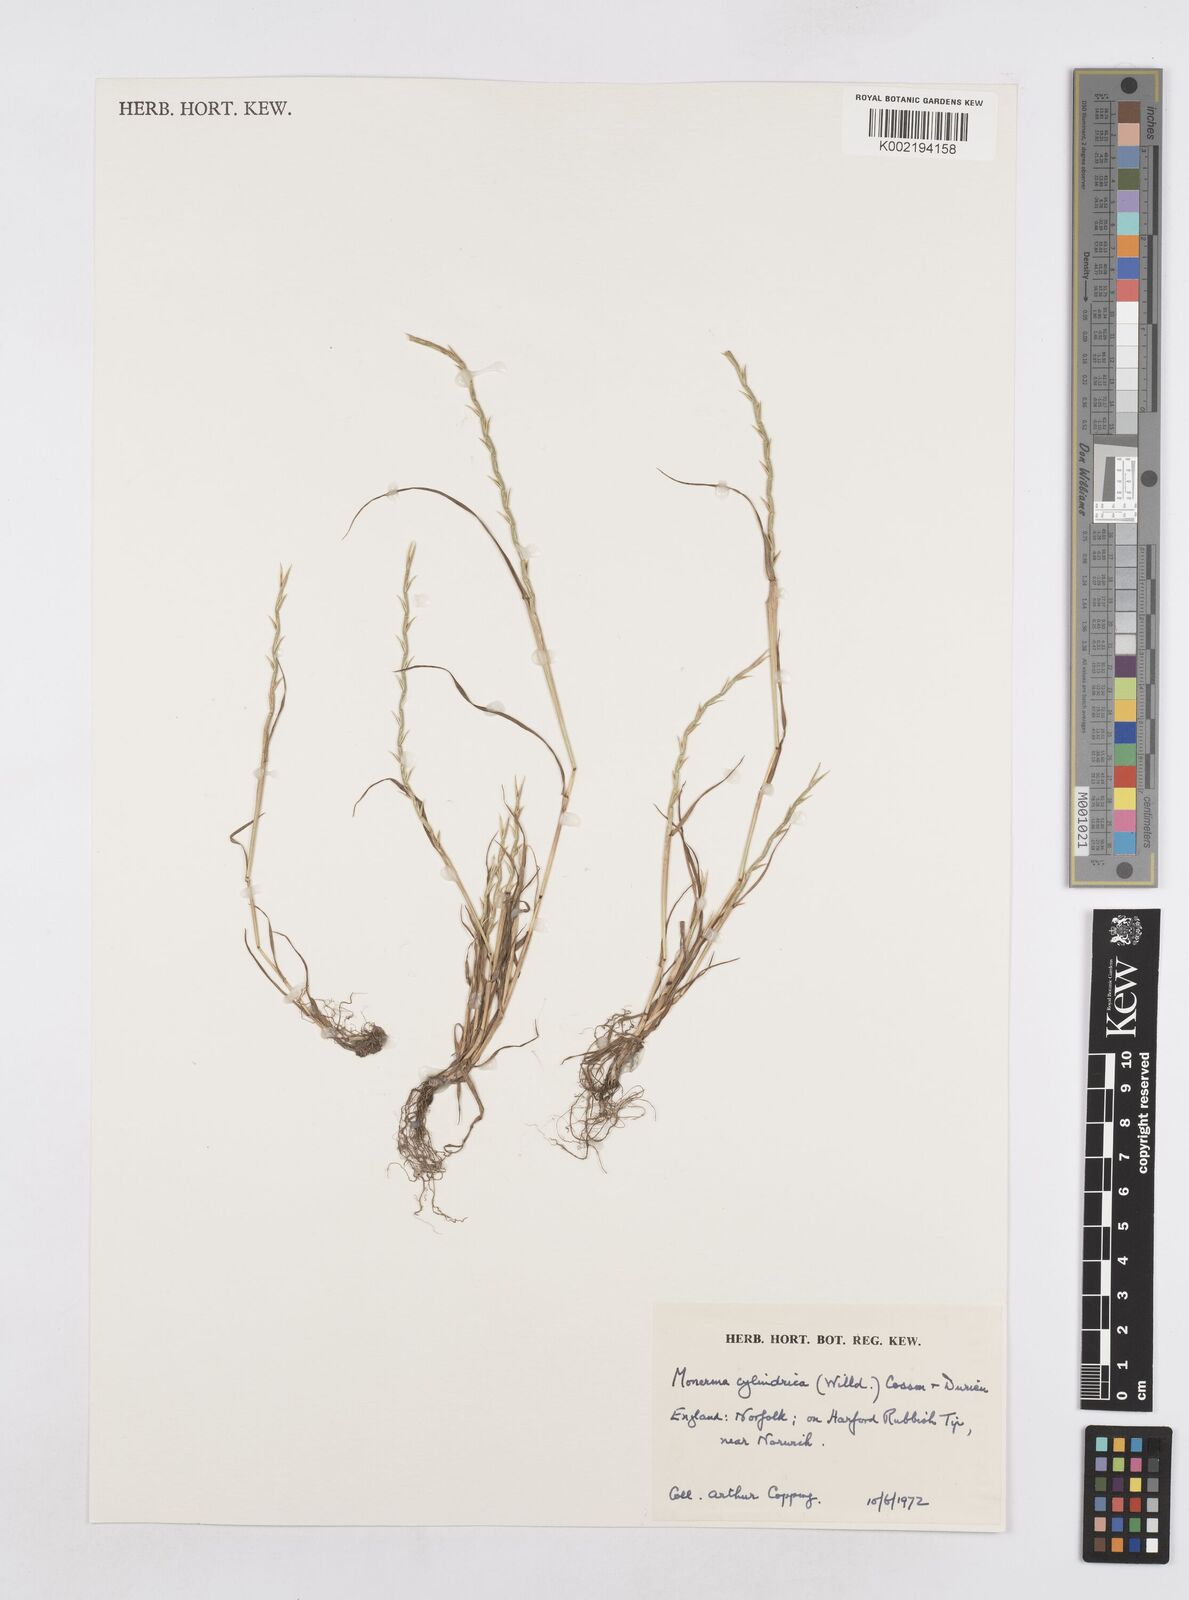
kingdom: Plantae
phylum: Tracheophyta
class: Liliopsida
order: Poales
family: Poaceae
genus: Parapholis
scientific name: Parapholis cylindrica
